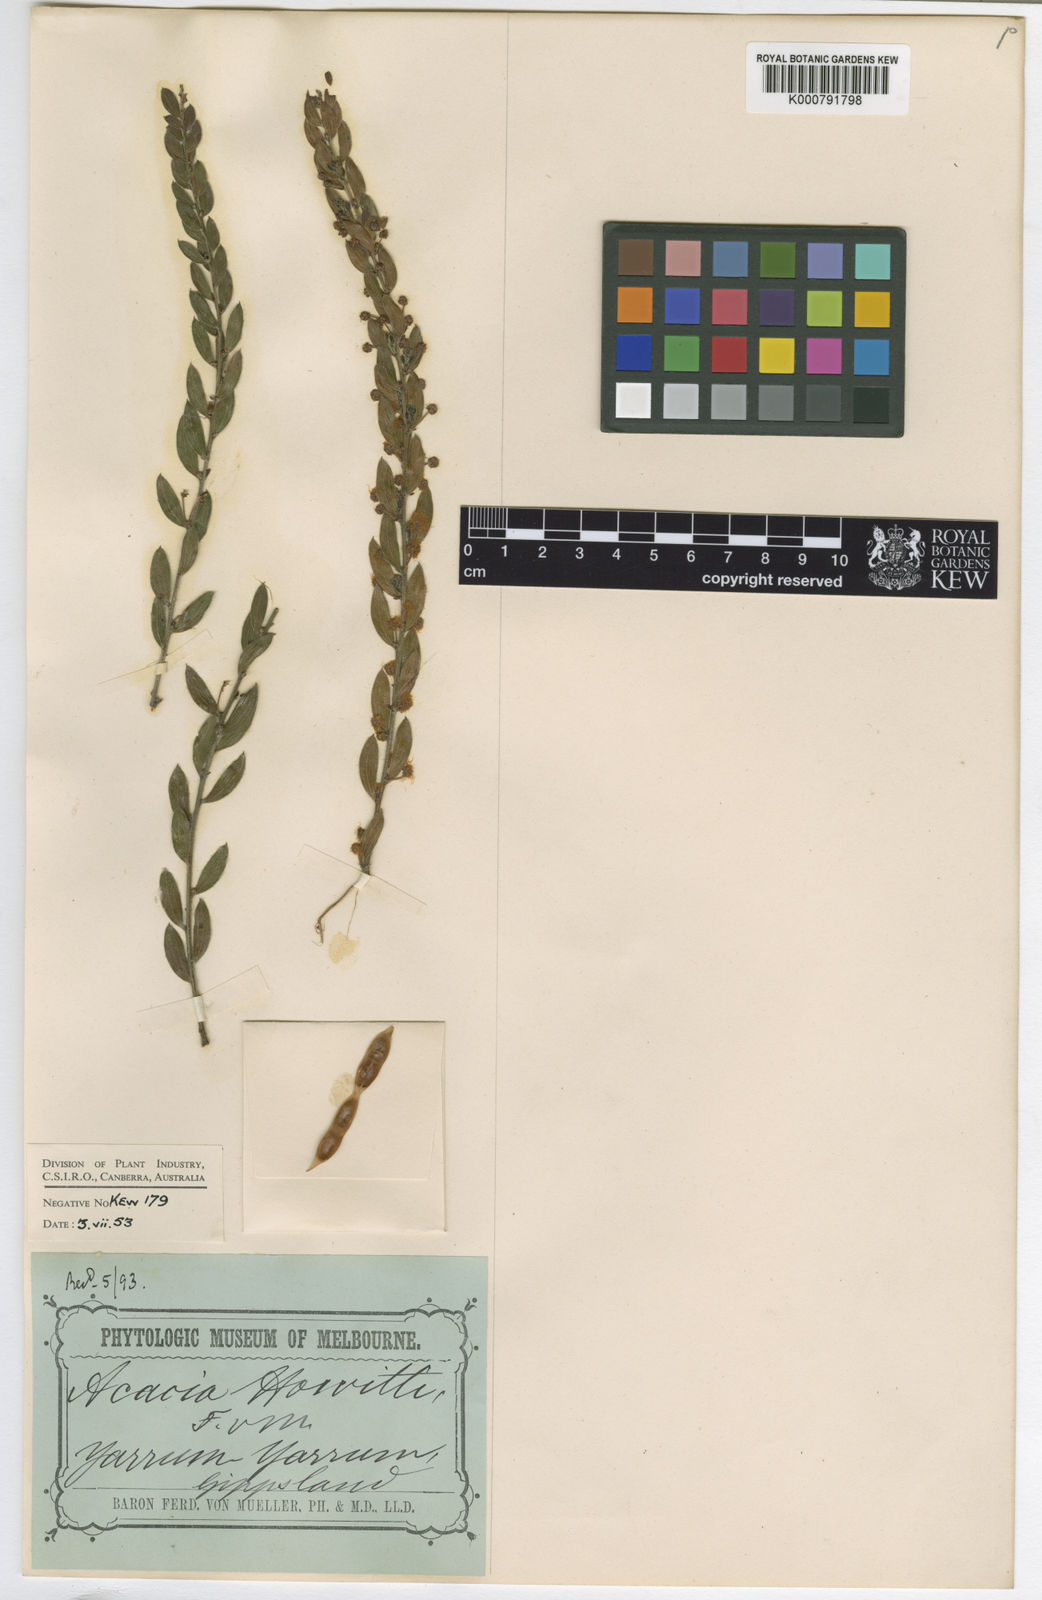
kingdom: Plantae
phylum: Tracheophyta
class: Magnoliopsida
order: Fabales
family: Fabaceae
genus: Acacia
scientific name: Acacia howittii
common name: Sticky wattle
